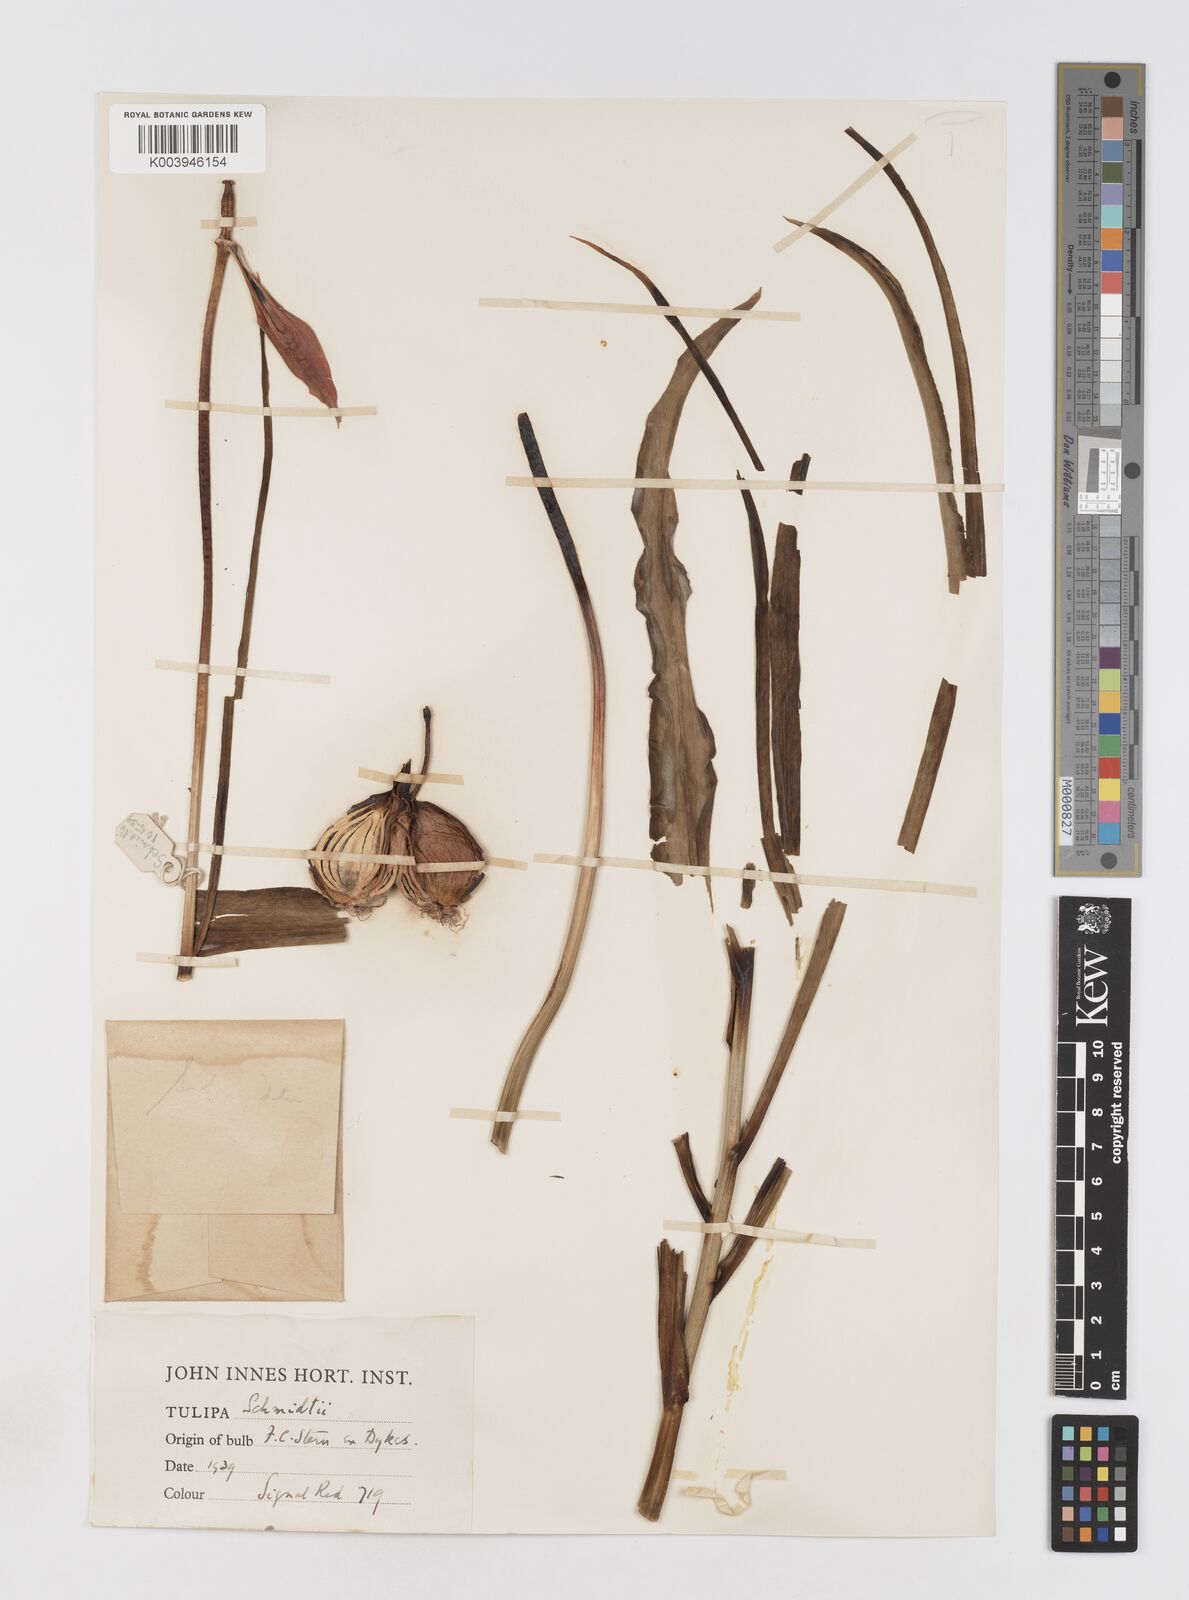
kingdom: Plantae
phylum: Tracheophyta
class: Liliopsida
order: Liliales
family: Liliaceae
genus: Tulipa
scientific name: Tulipa schmidtii
